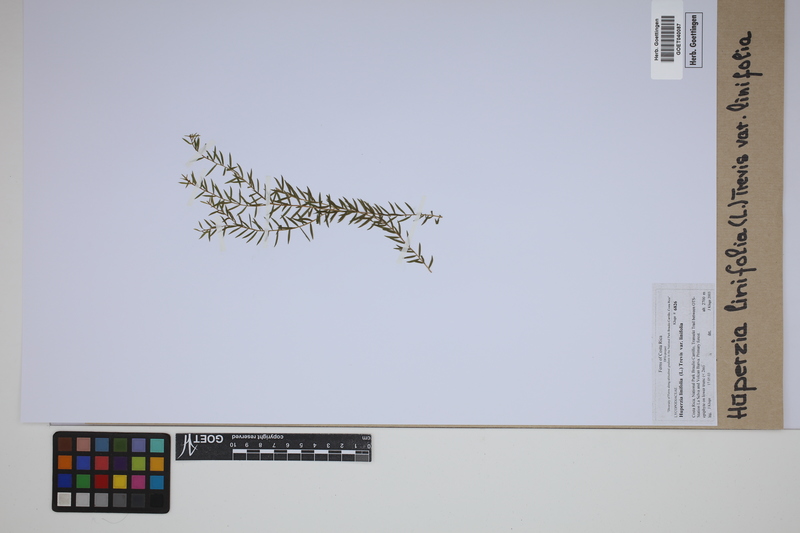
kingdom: Plantae
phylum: Tracheophyta
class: Lycopodiopsida
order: Lycopodiales
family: Lycopodiaceae
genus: Phlegmariurus
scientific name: Phlegmariurus linifolius
